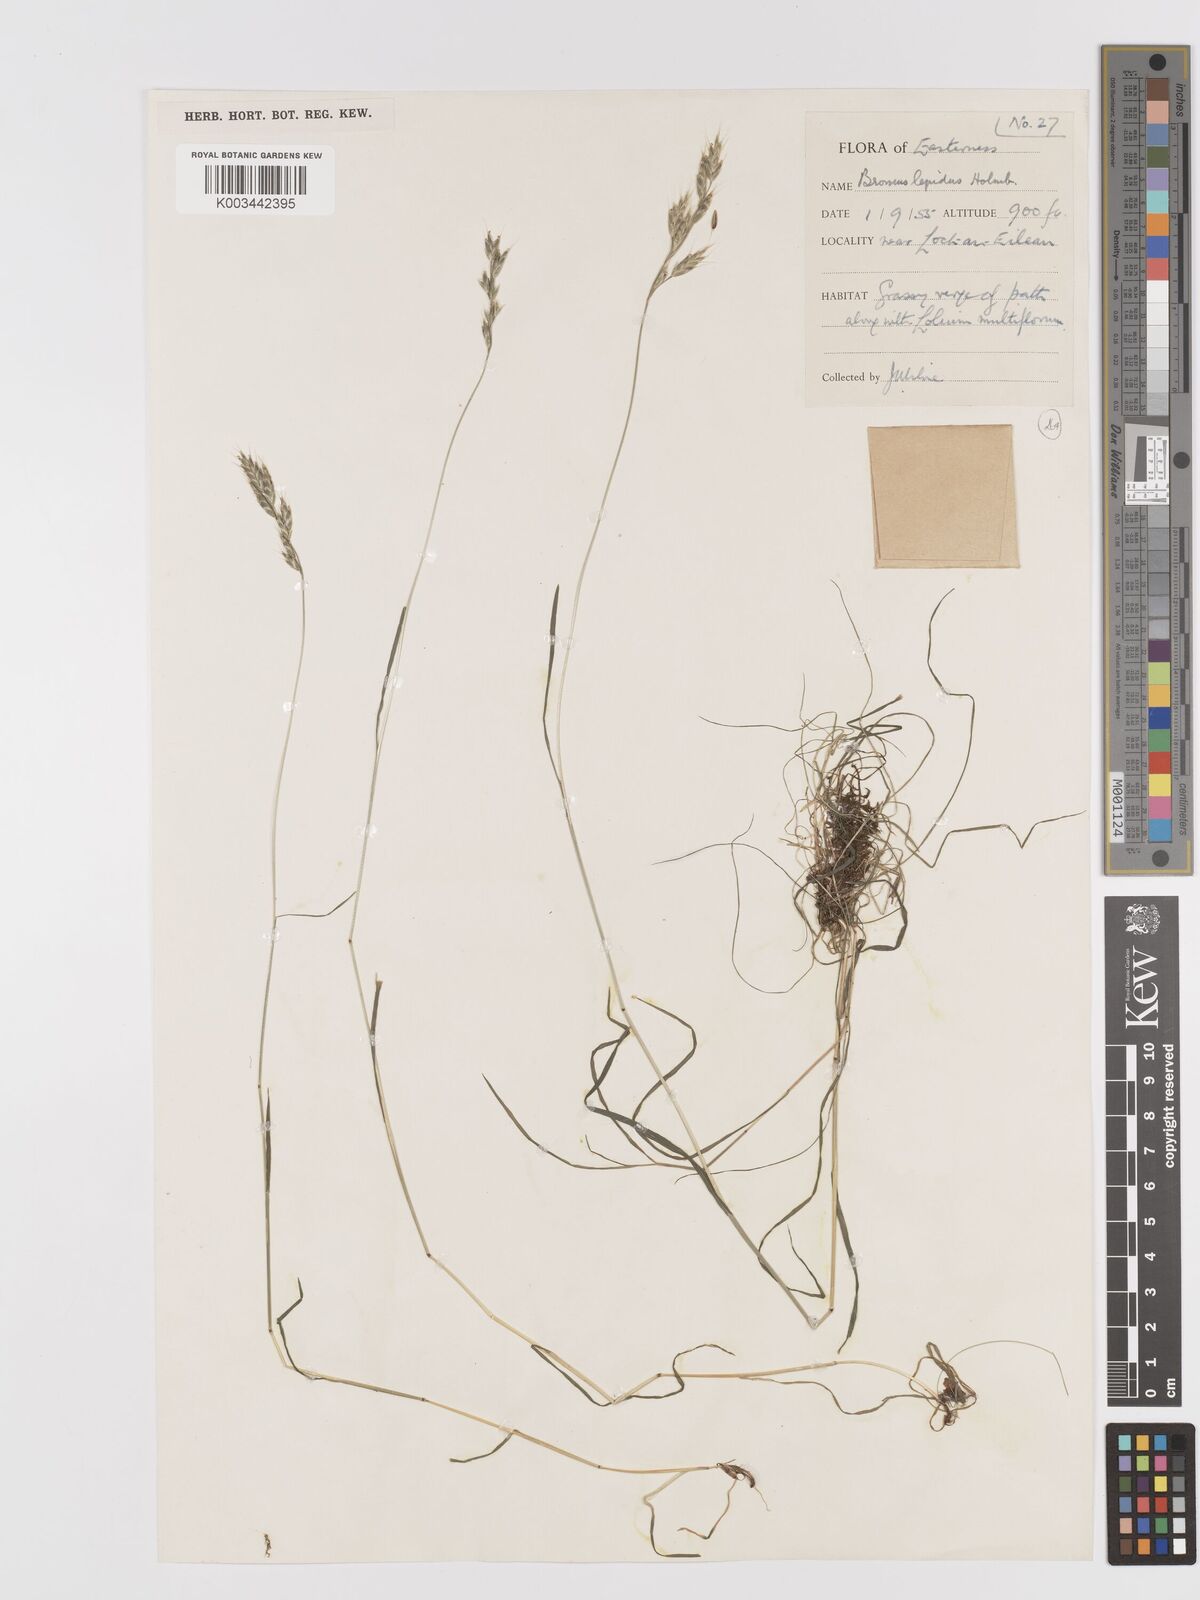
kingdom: Plantae
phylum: Tracheophyta
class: Liliopsida
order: Poales
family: Poaceae
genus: Bromus
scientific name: Bromus lepidus
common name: Slender soft-brome
